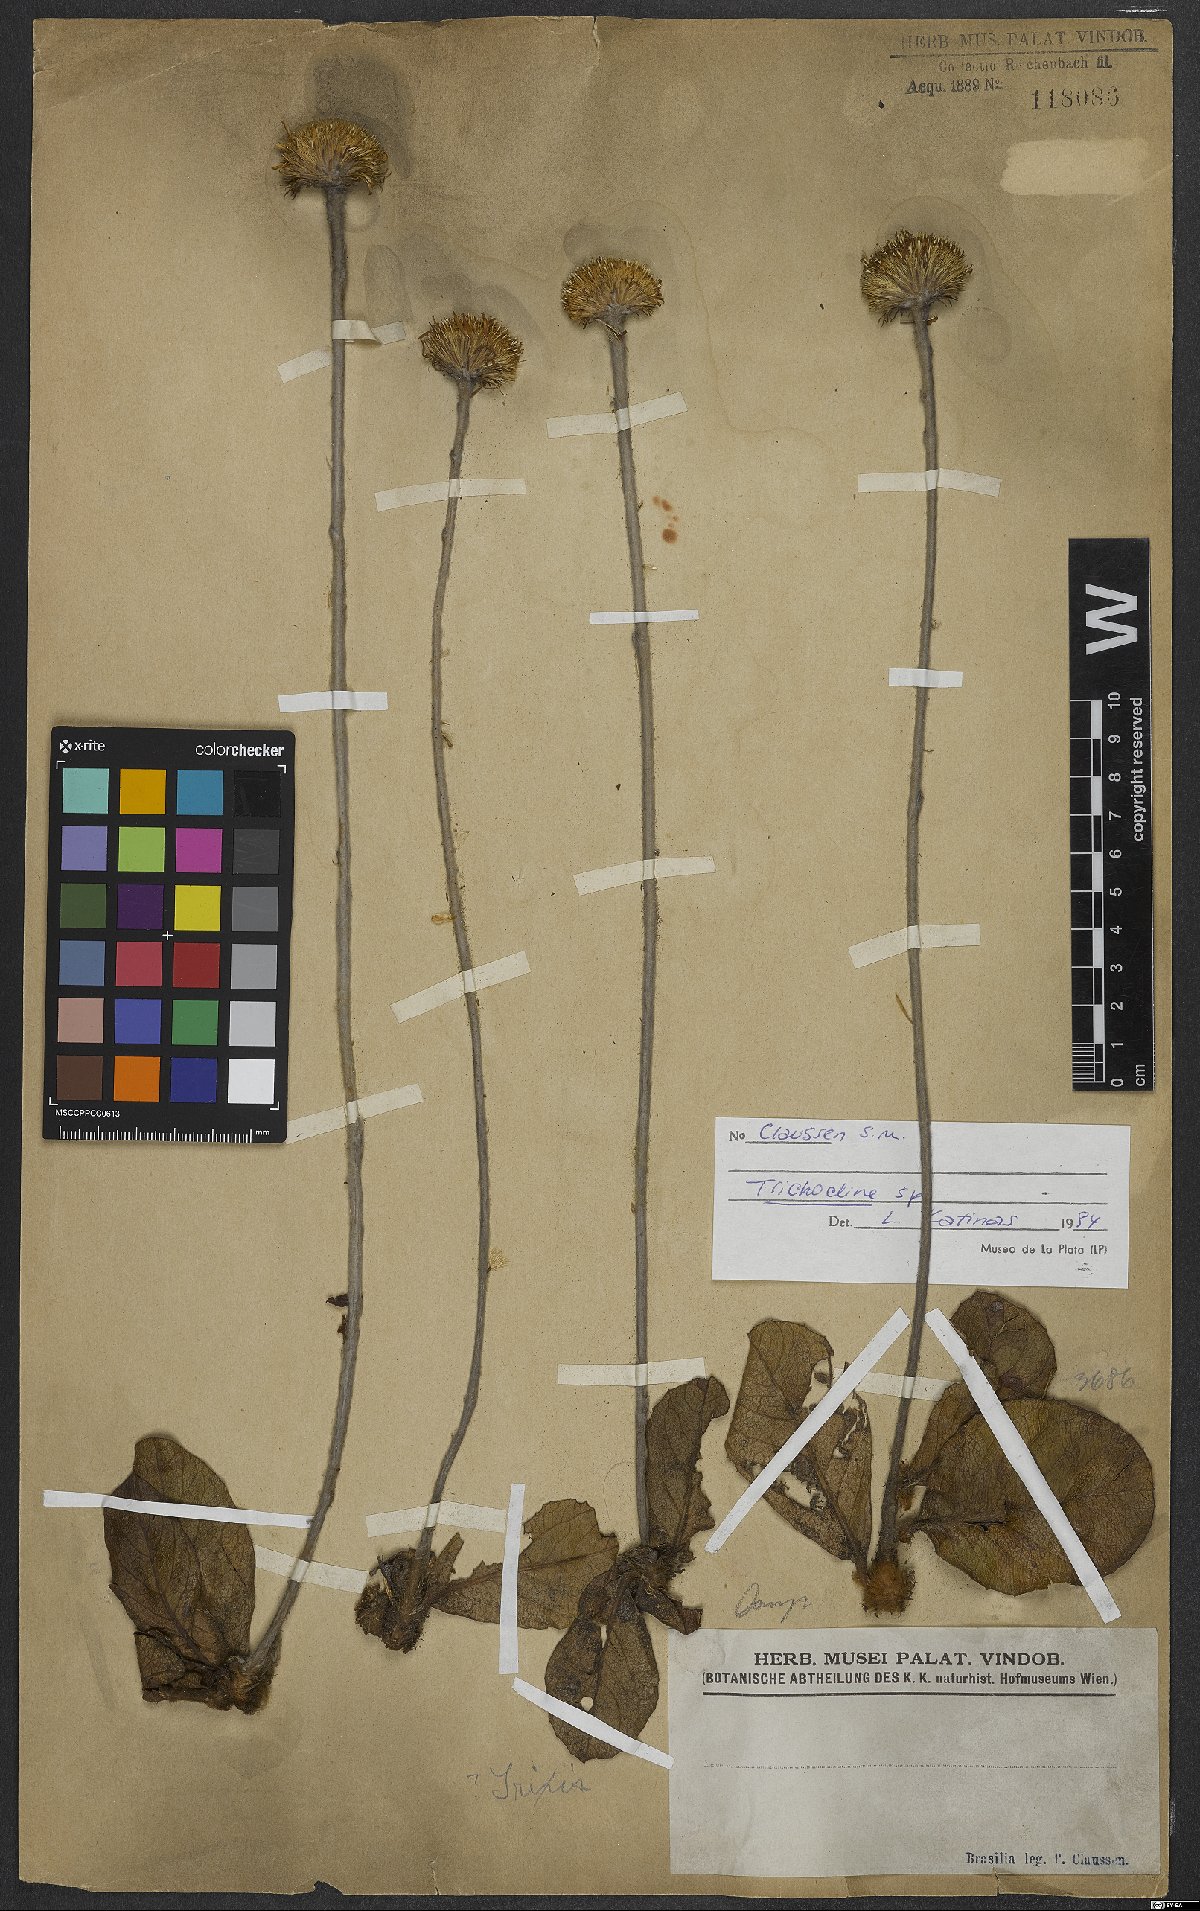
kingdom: Plantae
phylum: Tracheophyta
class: Magnoliopsida
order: Asterales
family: Asteraceae
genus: Trichocline
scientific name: Trichocline
